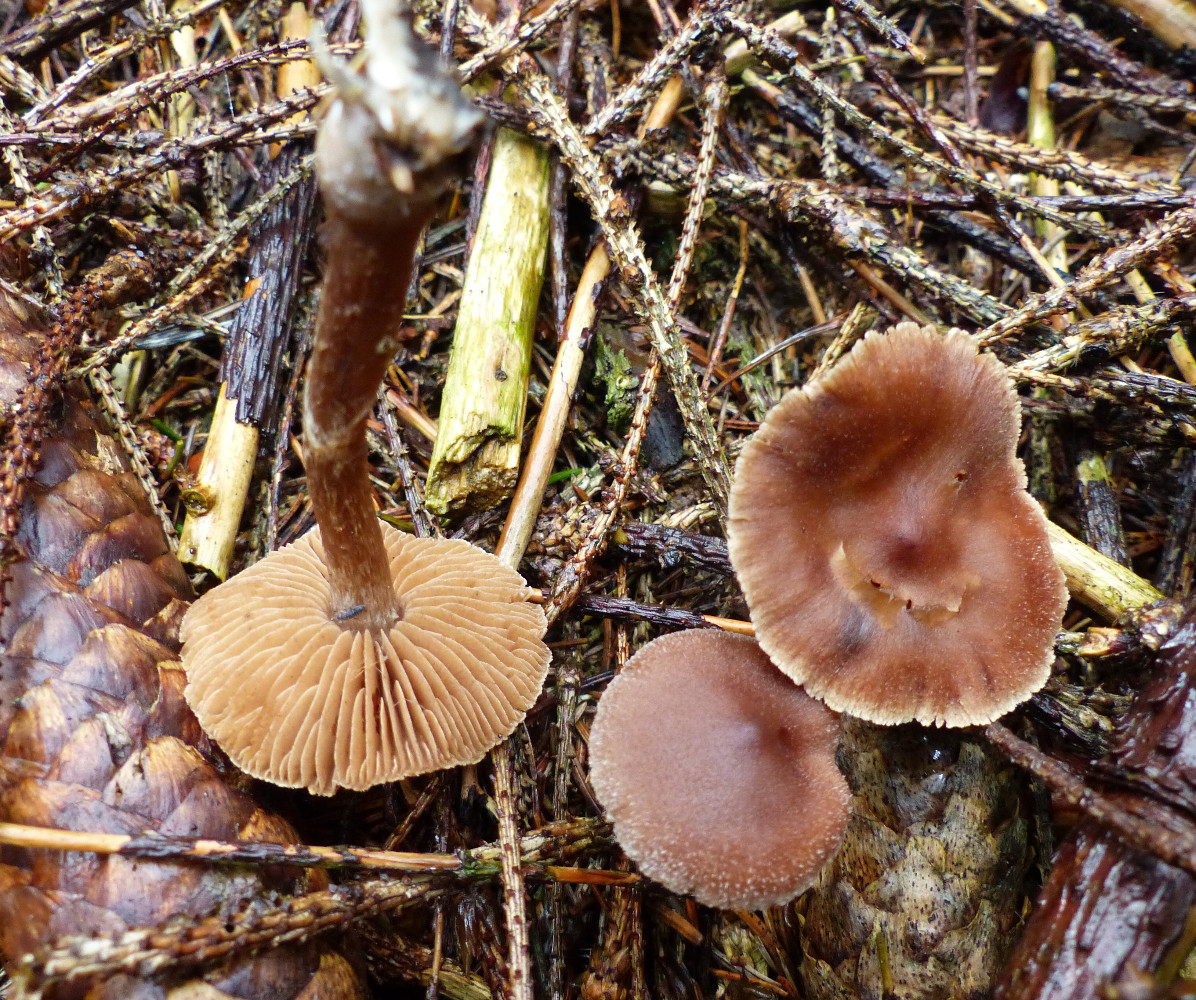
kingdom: Fungi
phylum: Basidiomycota
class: Agaricomycetes
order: Agaricales
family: Cortinariaceae
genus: Cortinarius
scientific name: Cortinarius kauffmanianus
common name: plantage-slørhat
